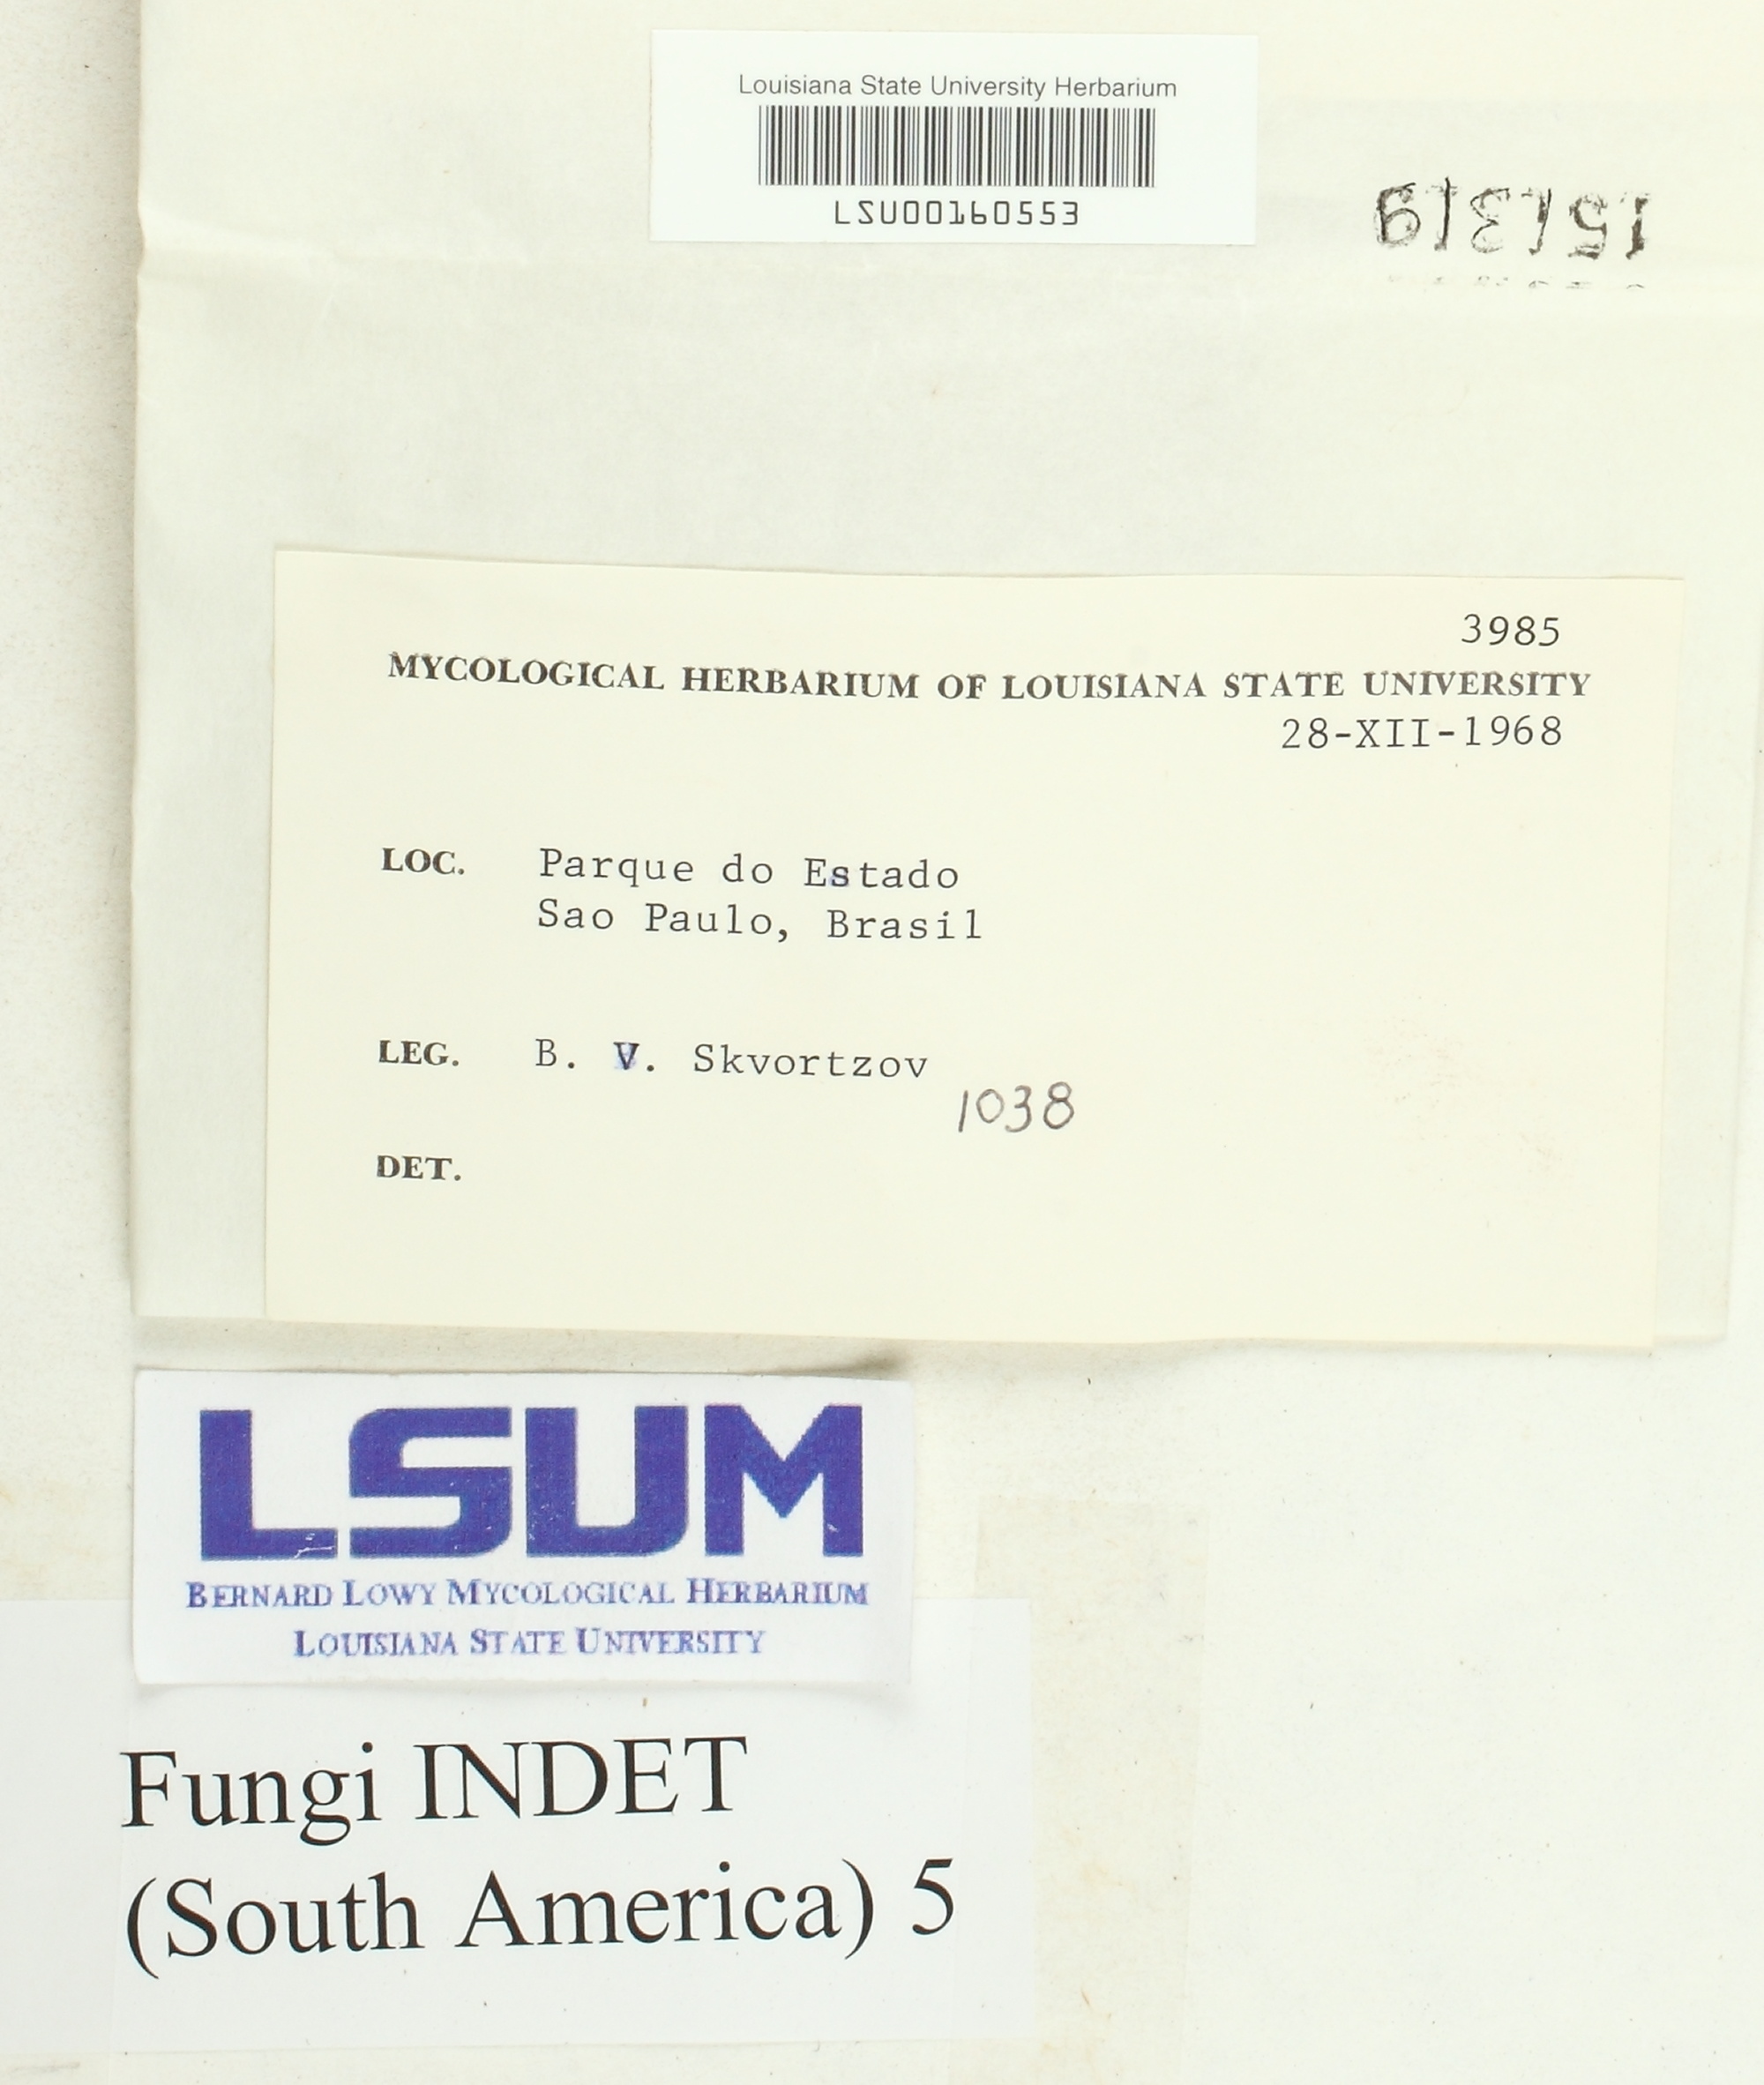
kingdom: Fungi
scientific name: Fungi
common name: Fungi
